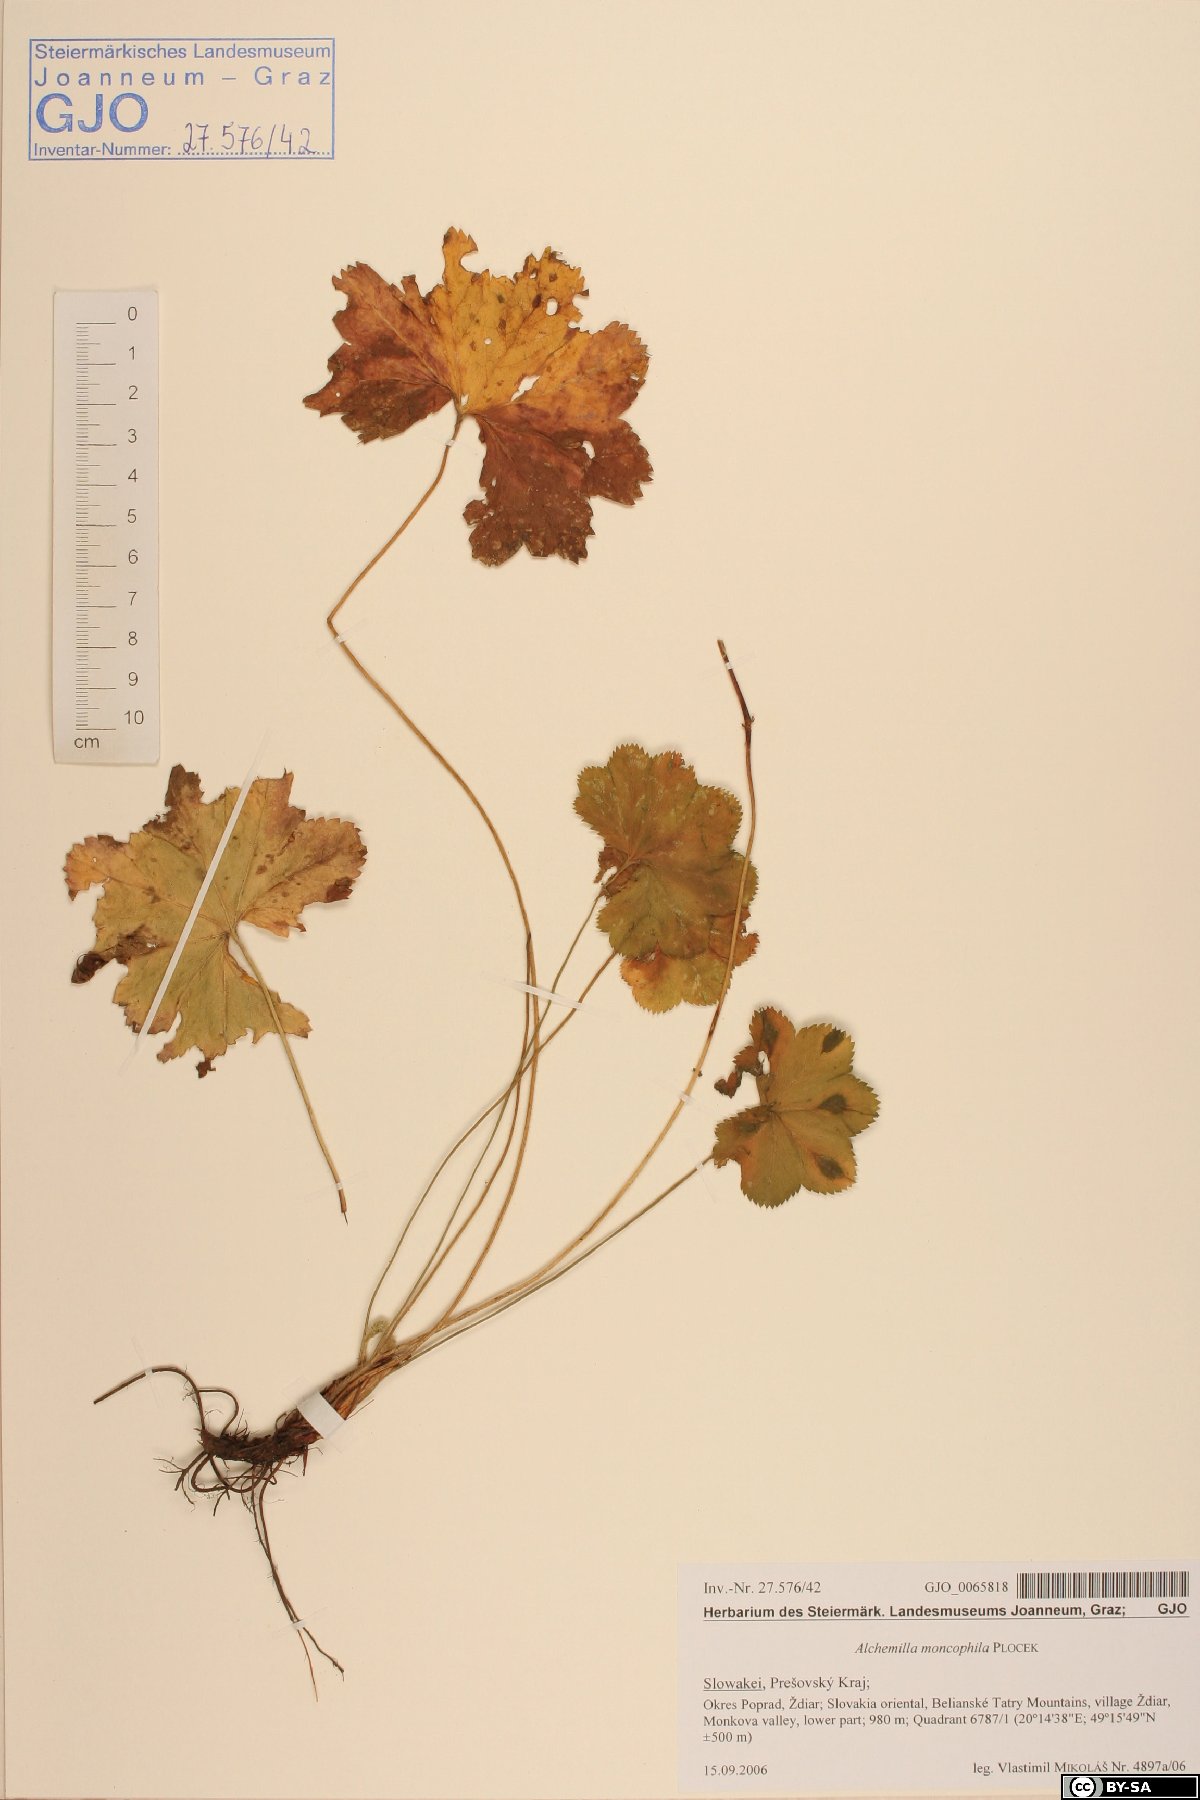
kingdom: Plantae
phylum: Tracheophyta
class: Magnoliopsida
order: Rosales
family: Rosaceae
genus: Alchemilla
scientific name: Alchemilla moncophila
